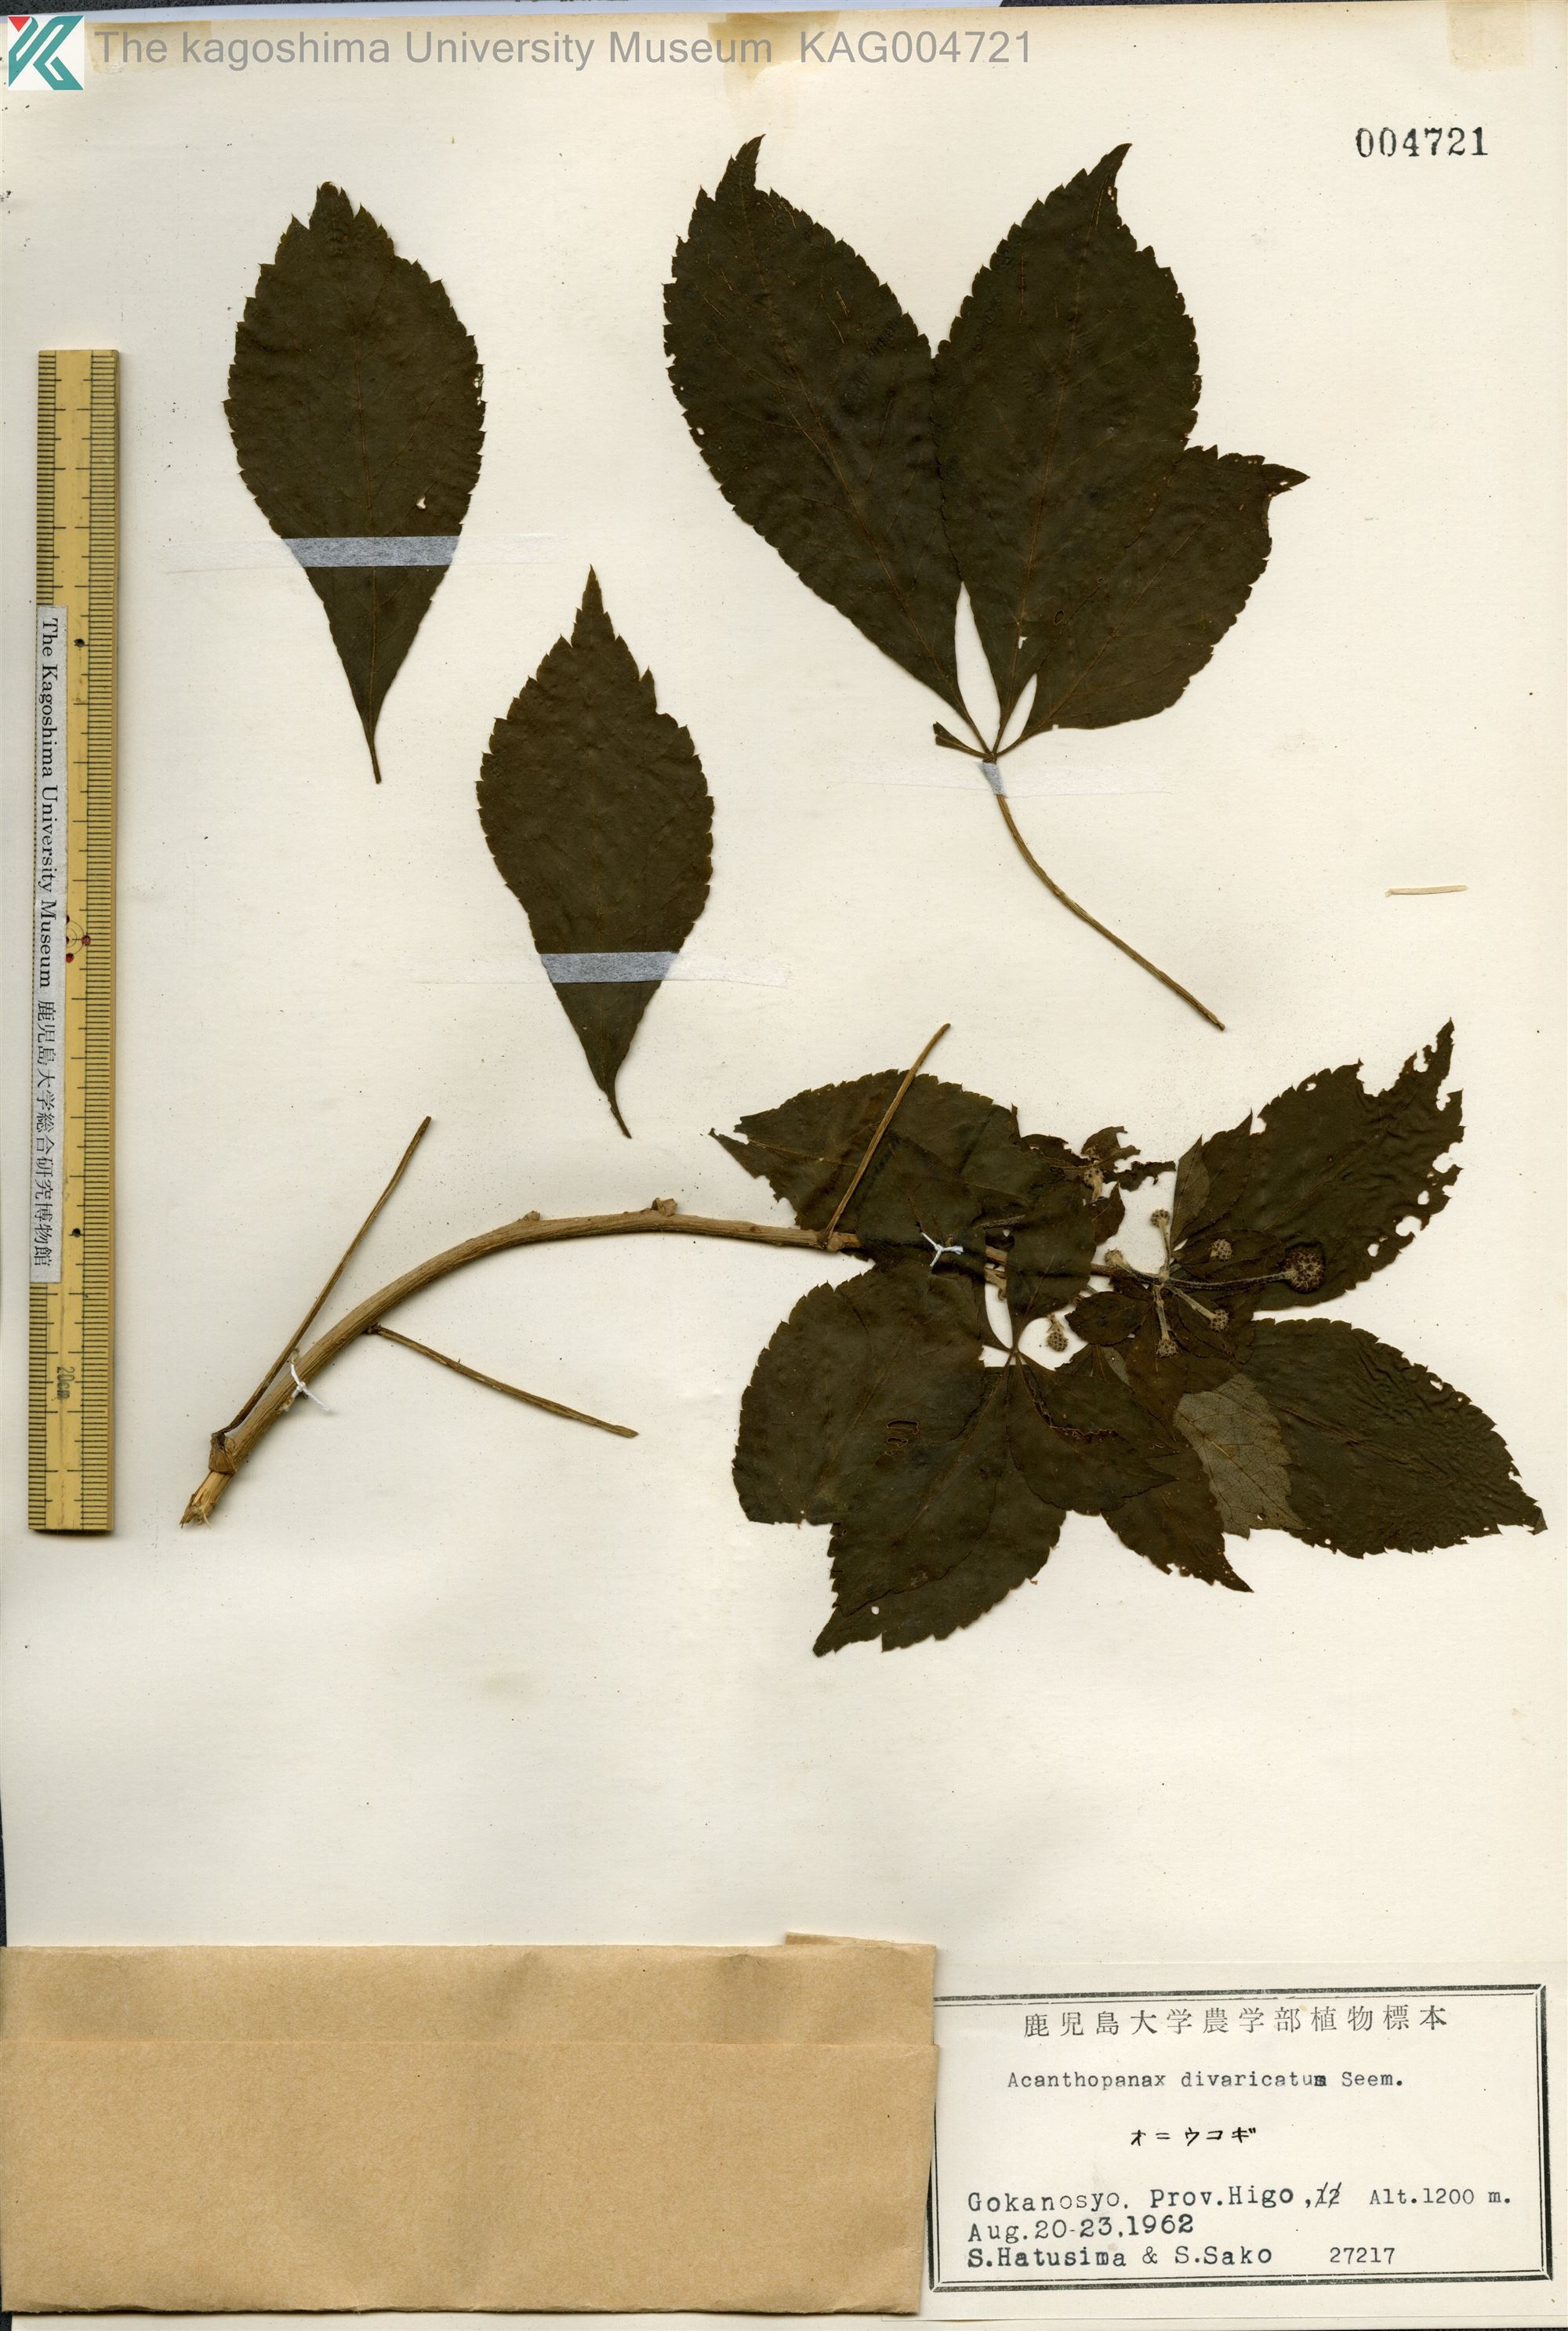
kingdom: Plantae
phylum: Tracheophyta
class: Magnoliopsida
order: Apiales
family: Araliaceae
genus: Eleutherococcus
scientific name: Eleutherococcus divaricatus
